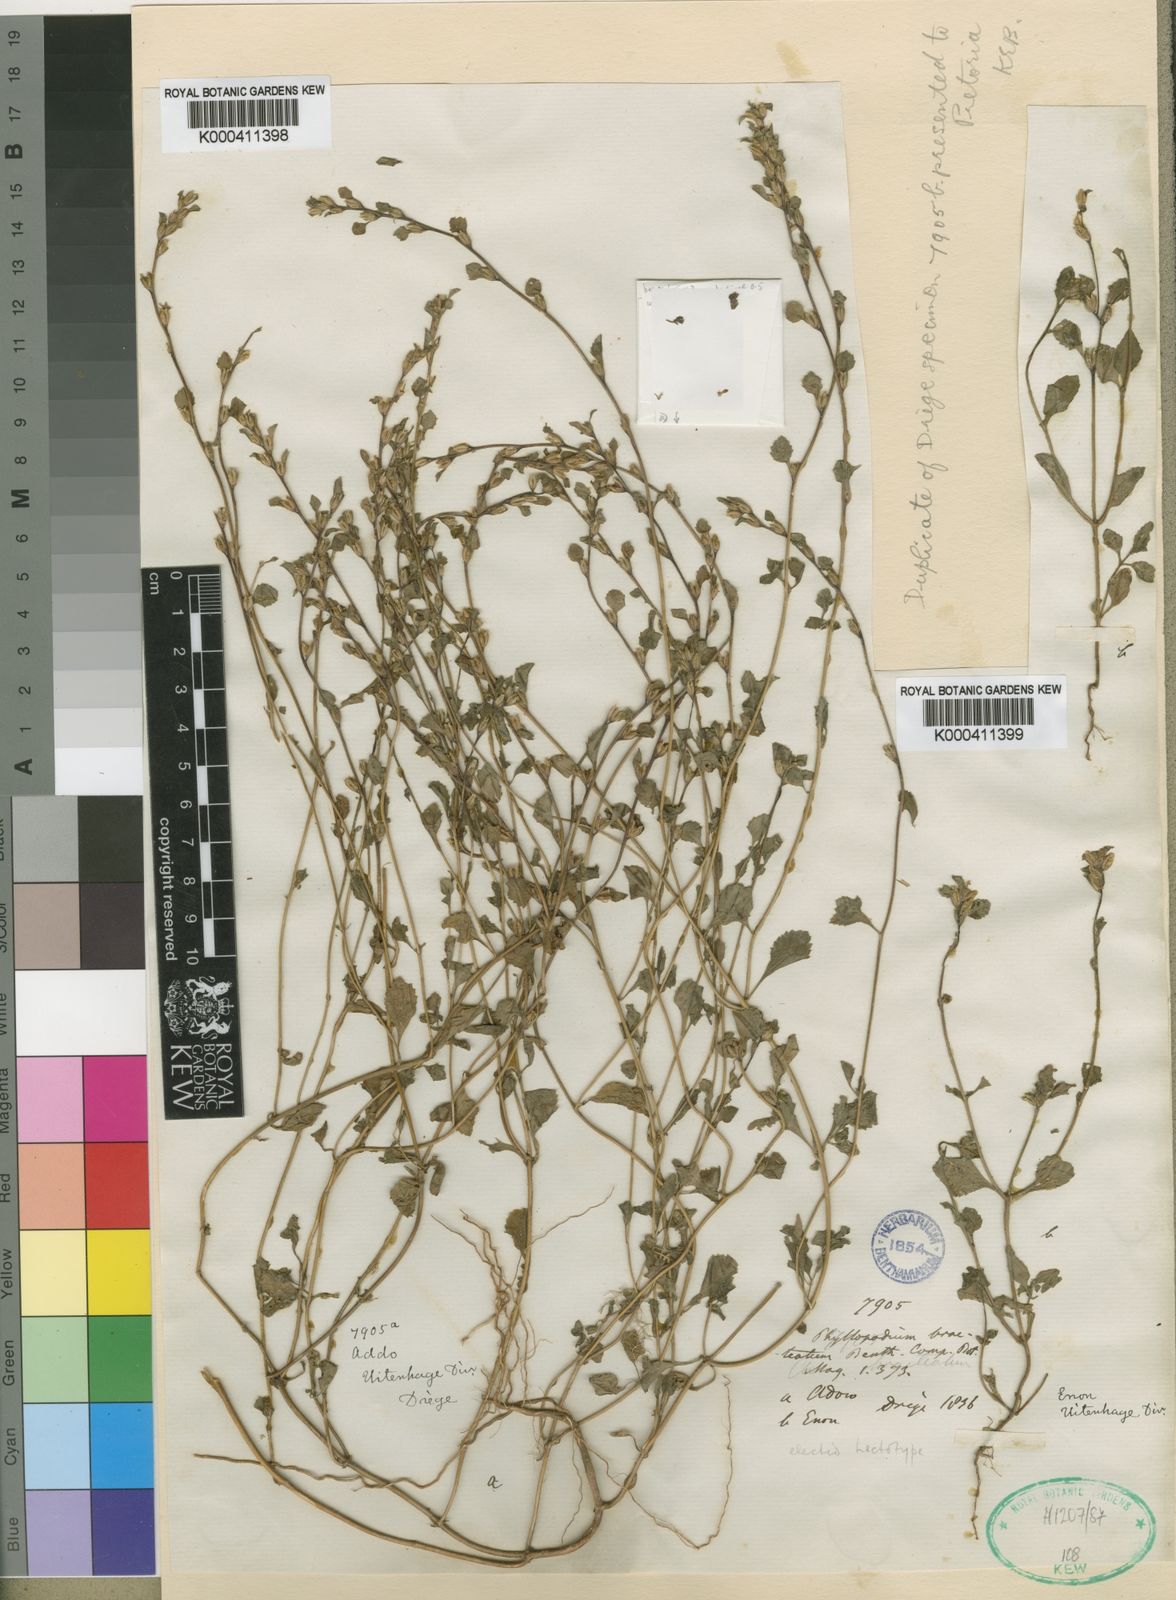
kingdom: Plantae
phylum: Tracheophyta
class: Magnoliopsida
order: Lamiales
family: Scrophulariaceae
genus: Phyllopodium
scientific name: Phyllopodium bracteatum
